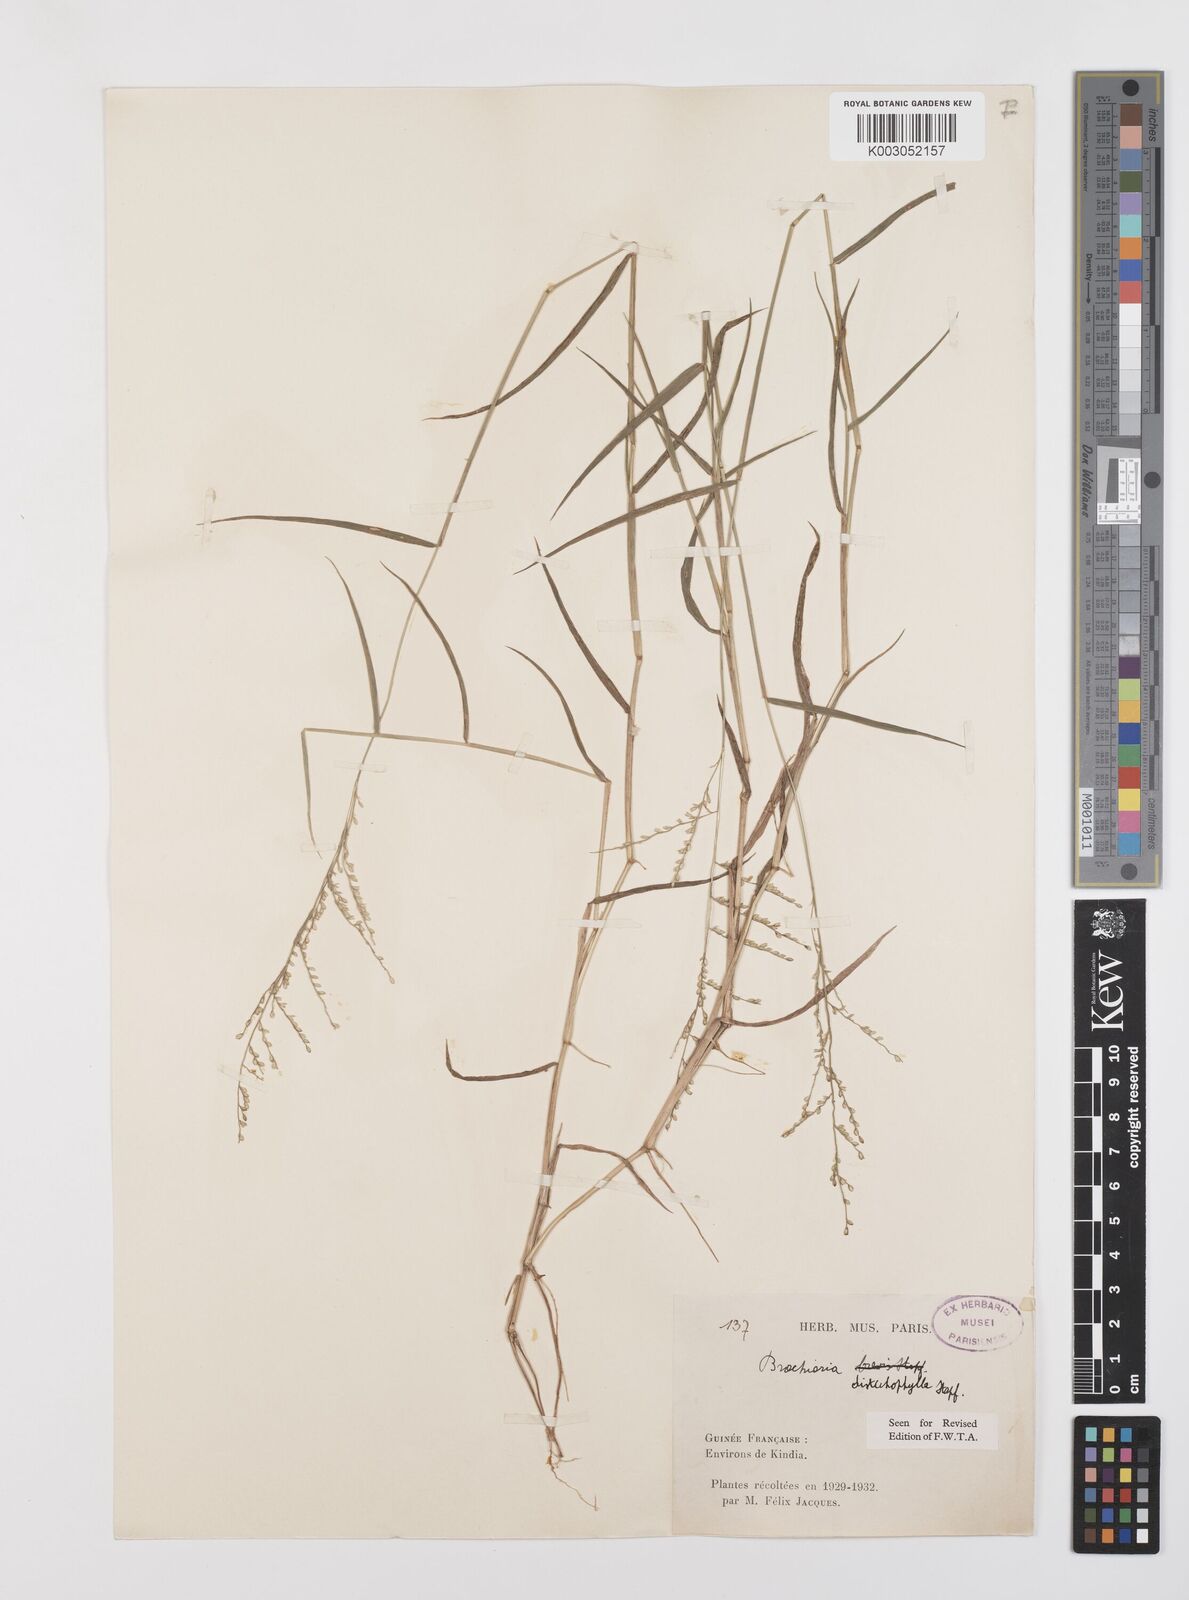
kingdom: Plantae
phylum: Tracheophyta
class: Liliopsida
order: Poales
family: Poaceae
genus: Urochloa
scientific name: Urochloa villosa
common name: Hairy signalgrass
